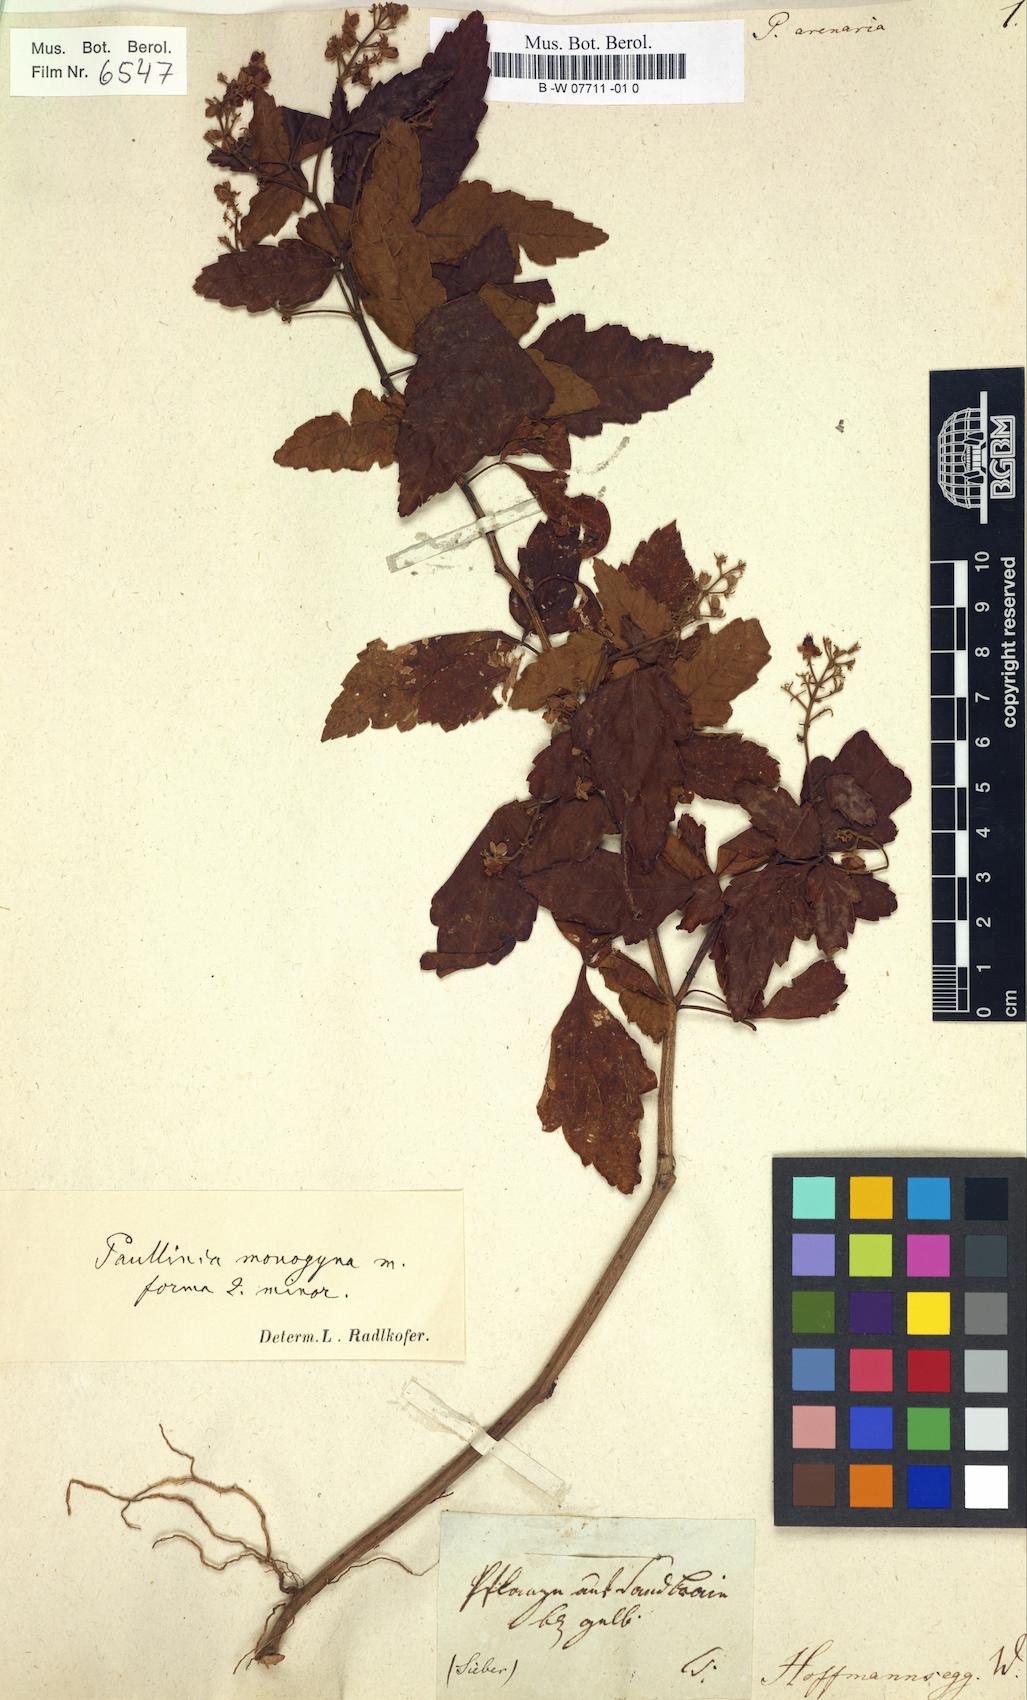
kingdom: Plantae
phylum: Tracheophyta
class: Magnoliopsida
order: Sapindales
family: Sapindaceae
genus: Paullinia
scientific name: Paullinia
